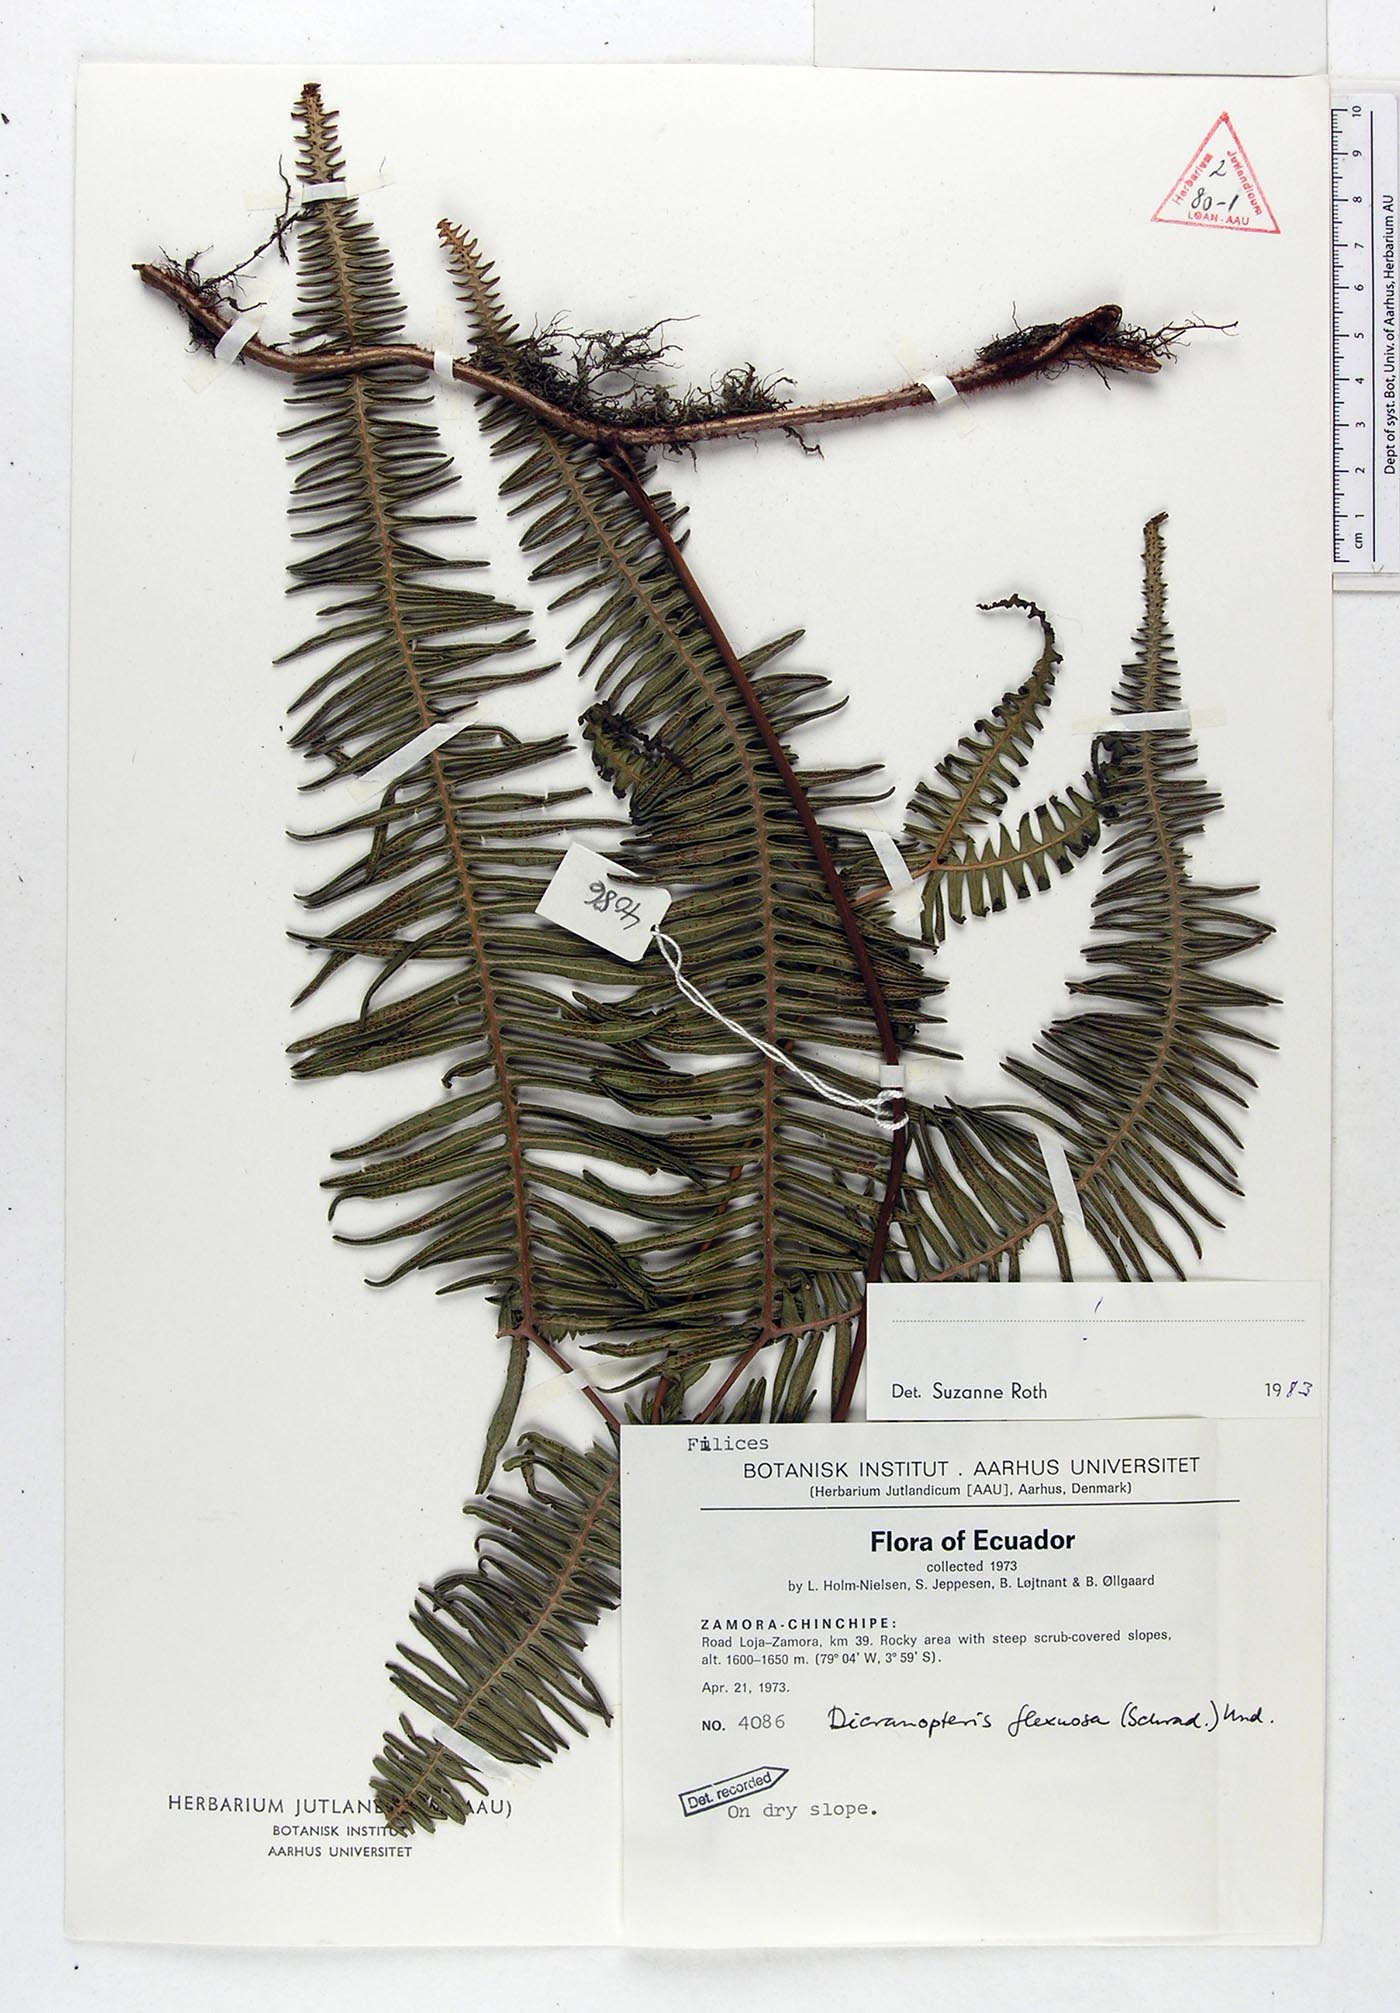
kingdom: Plantae
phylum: Tracheophyta
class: Polypodiopsida
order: Gleicheniales
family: Gleicheniaceae
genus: Dicranopteris
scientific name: Dicranopteris flexuosa
